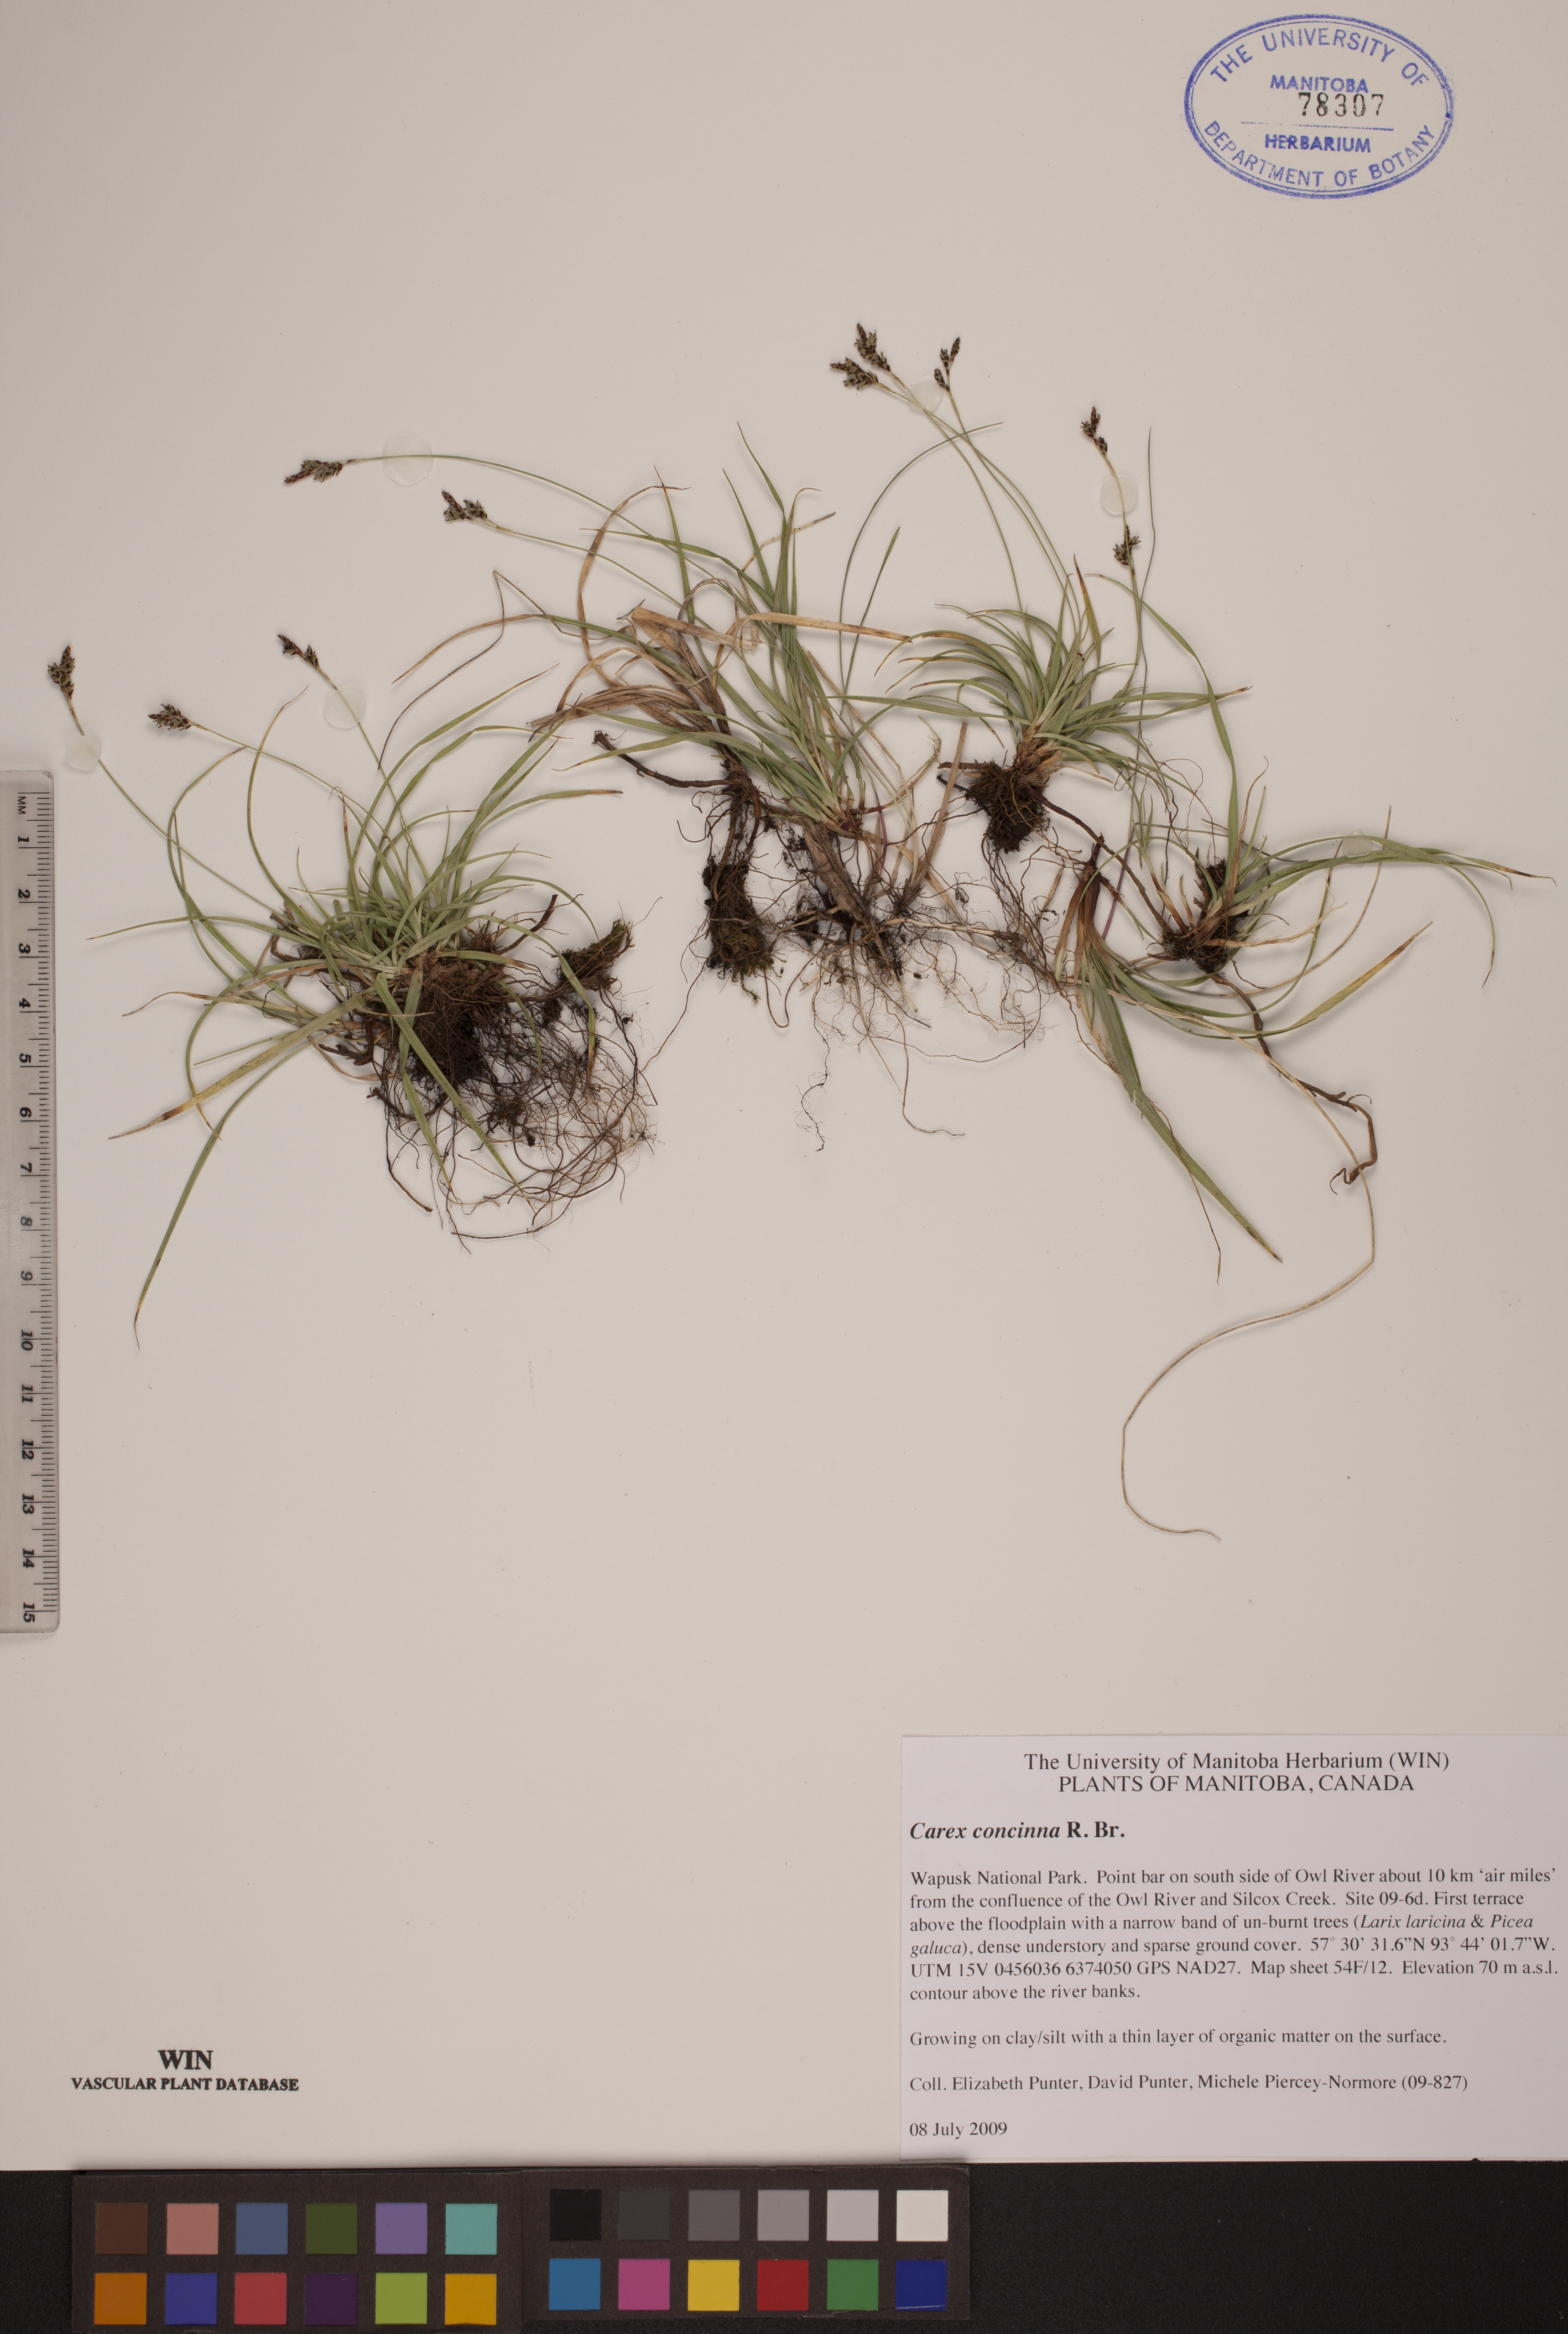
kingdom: Plantae
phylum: Tracheophyta
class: Liliopsida
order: Poales
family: Cyperaceae
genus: Carex
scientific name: Carex concinna
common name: Beautiful sedge
